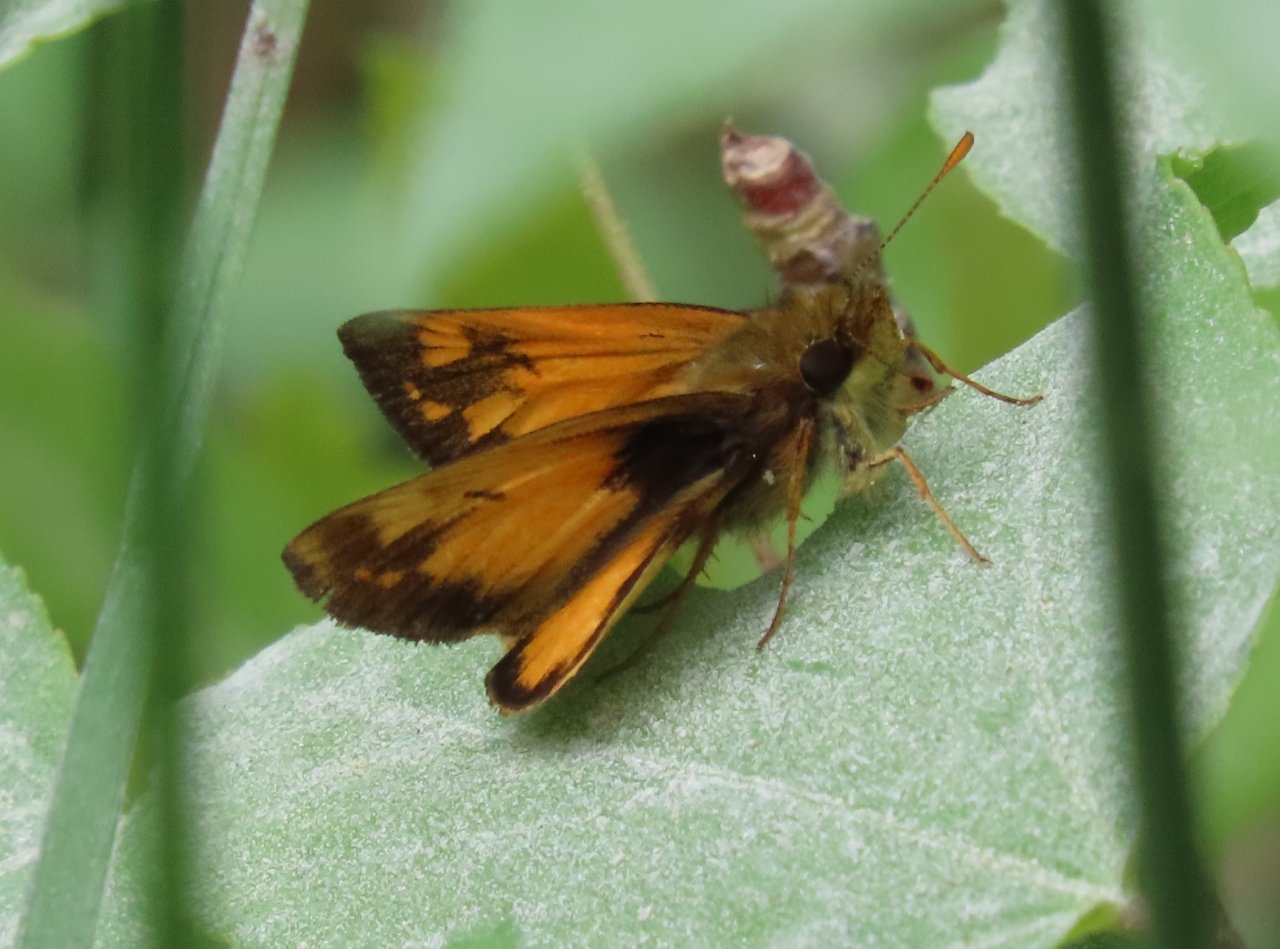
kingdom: Animalia
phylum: Arthropoda
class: Insecta
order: Lepidoptera
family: Hesperiidae
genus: Lon
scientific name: Lon zabulon
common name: Zabulon Skipper
